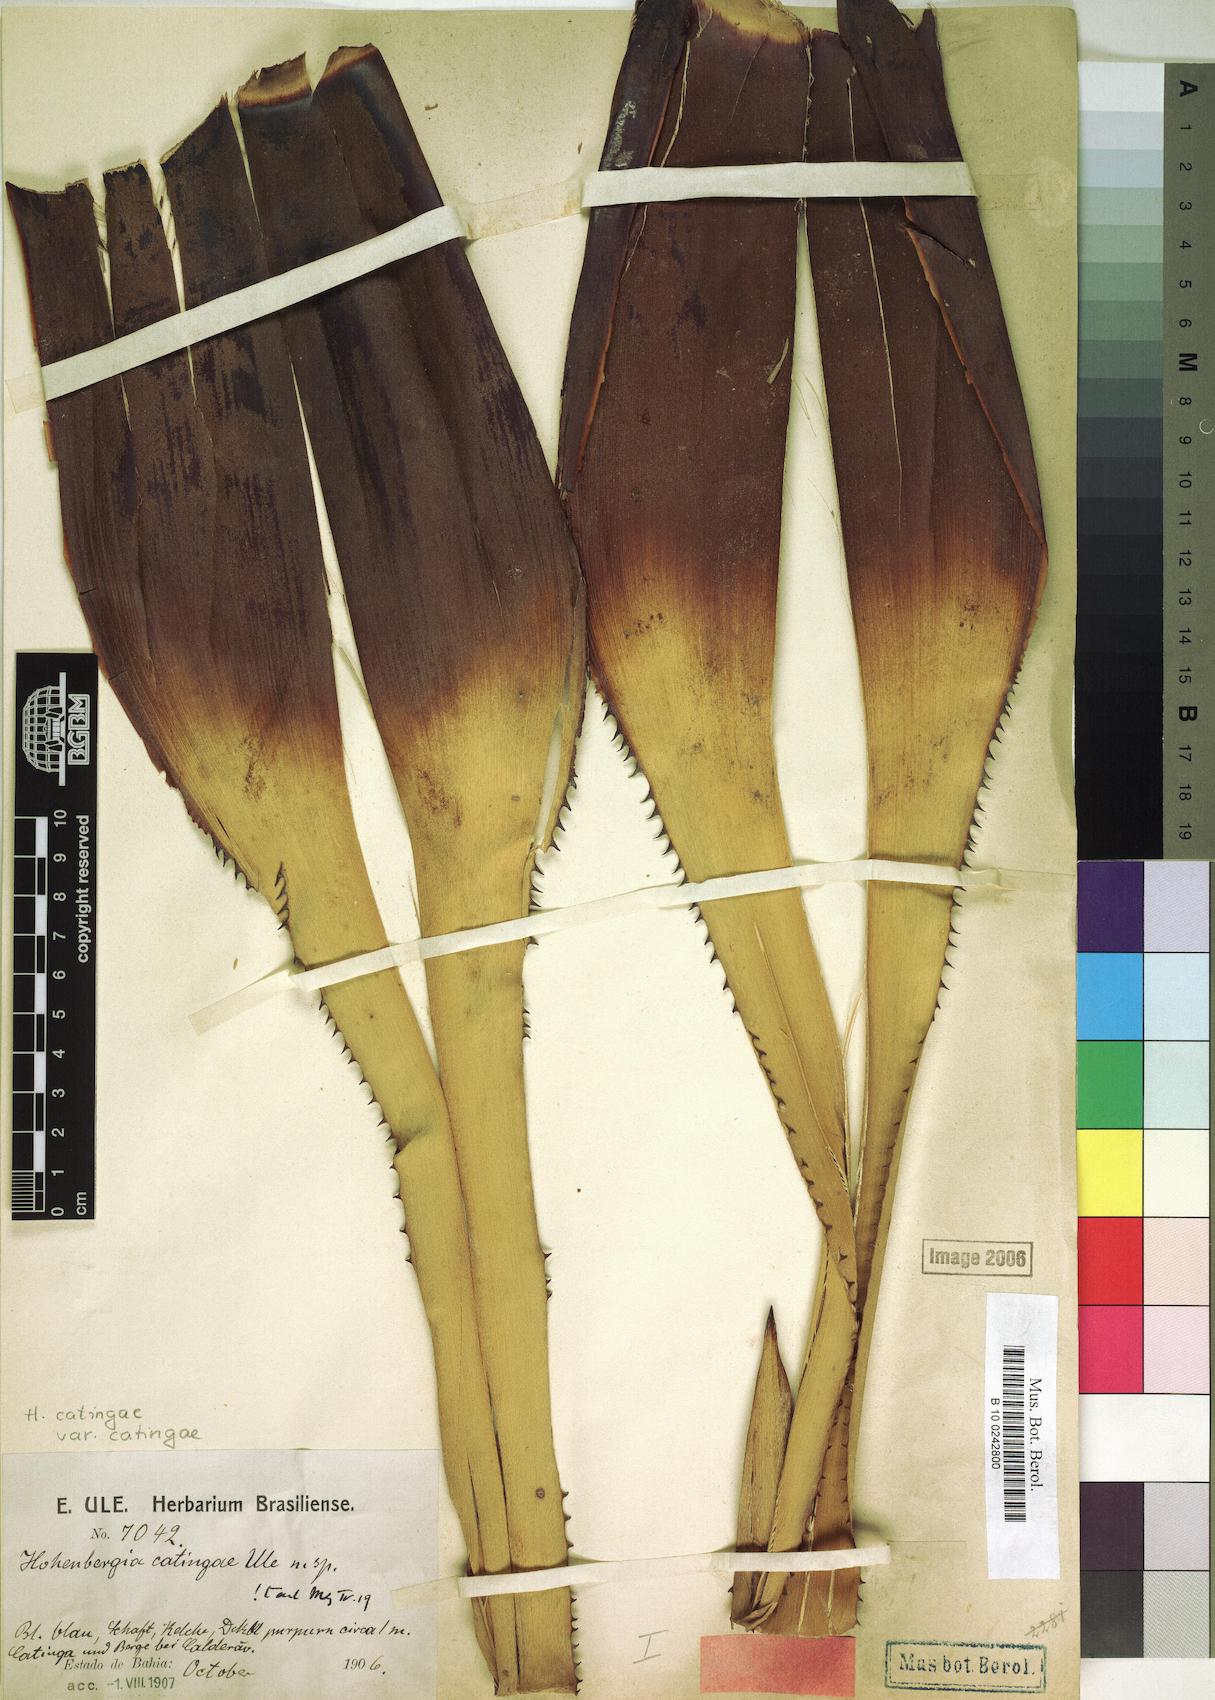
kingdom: Plantae
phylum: Tracheophyta
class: Liliopsida
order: Poales
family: Bromeliaceae
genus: Hohenbergia
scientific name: Hohenbergia catingae
